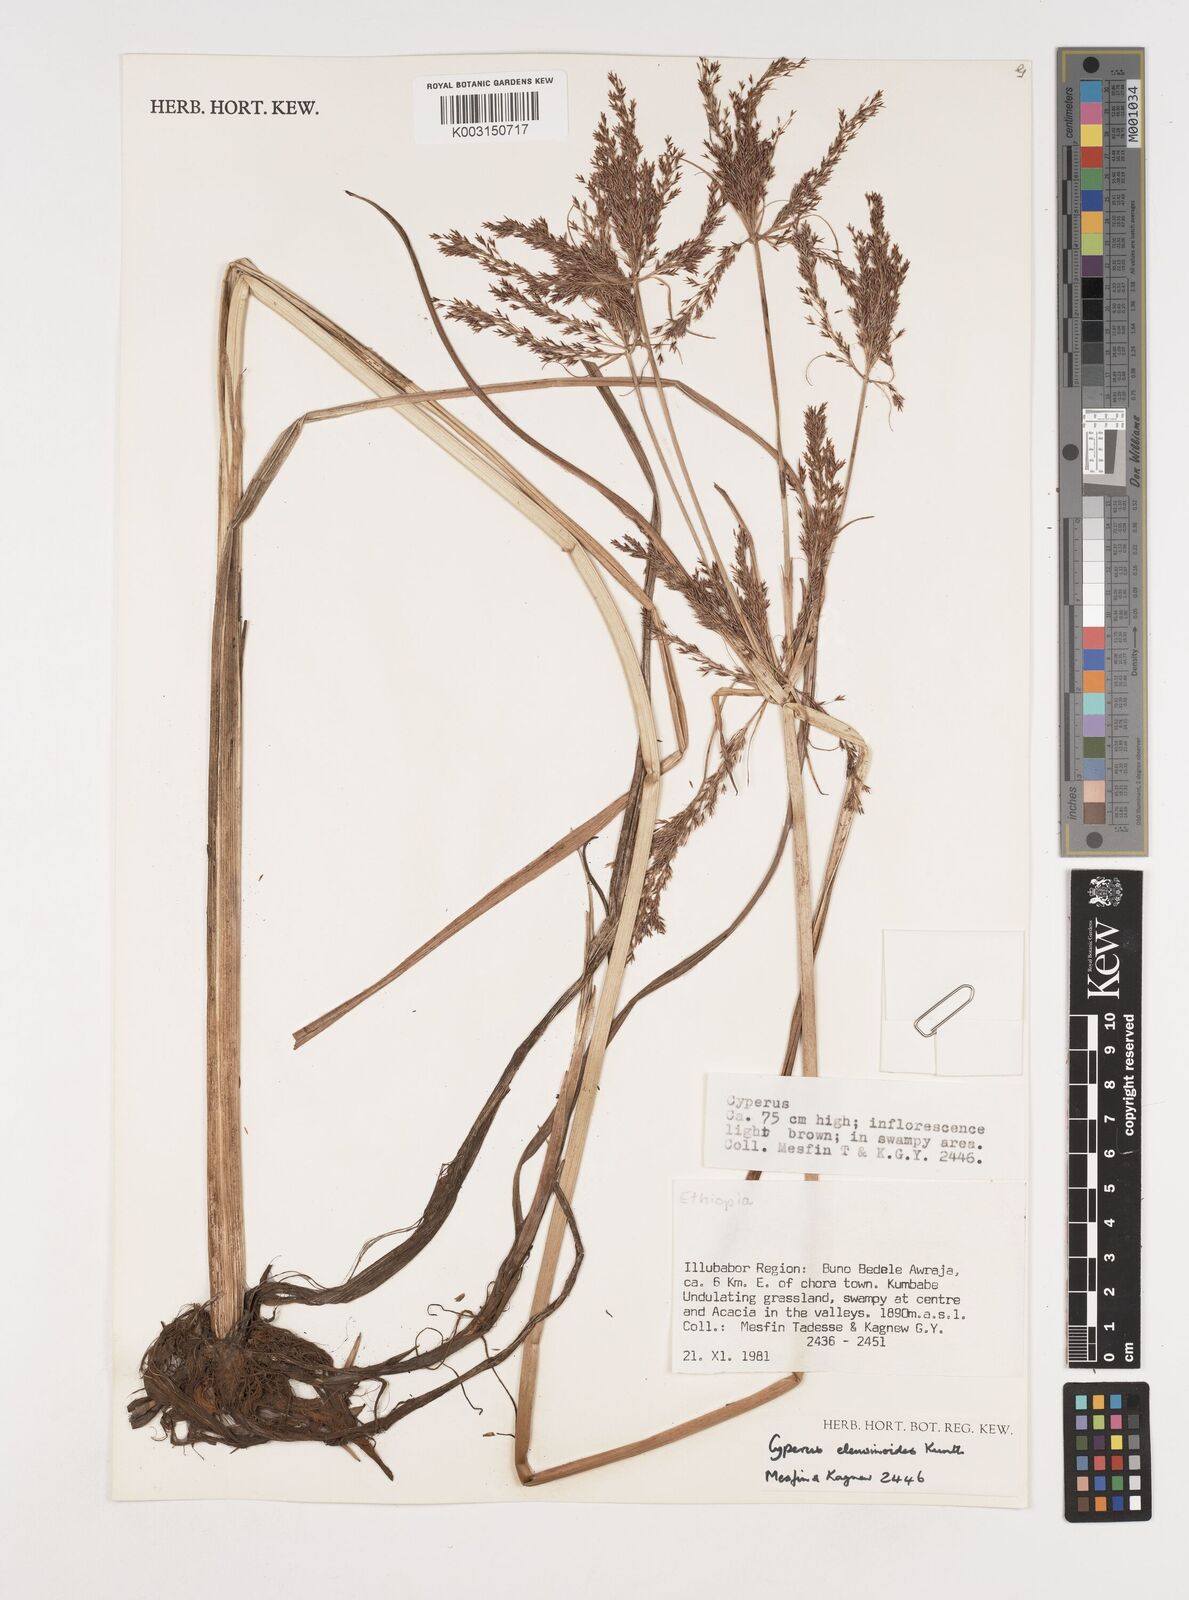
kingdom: Plantae
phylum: Tracheophyta
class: Liliopsida
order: Poales
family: Cyperaceae
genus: Cyperus
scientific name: Cyperus nutans
